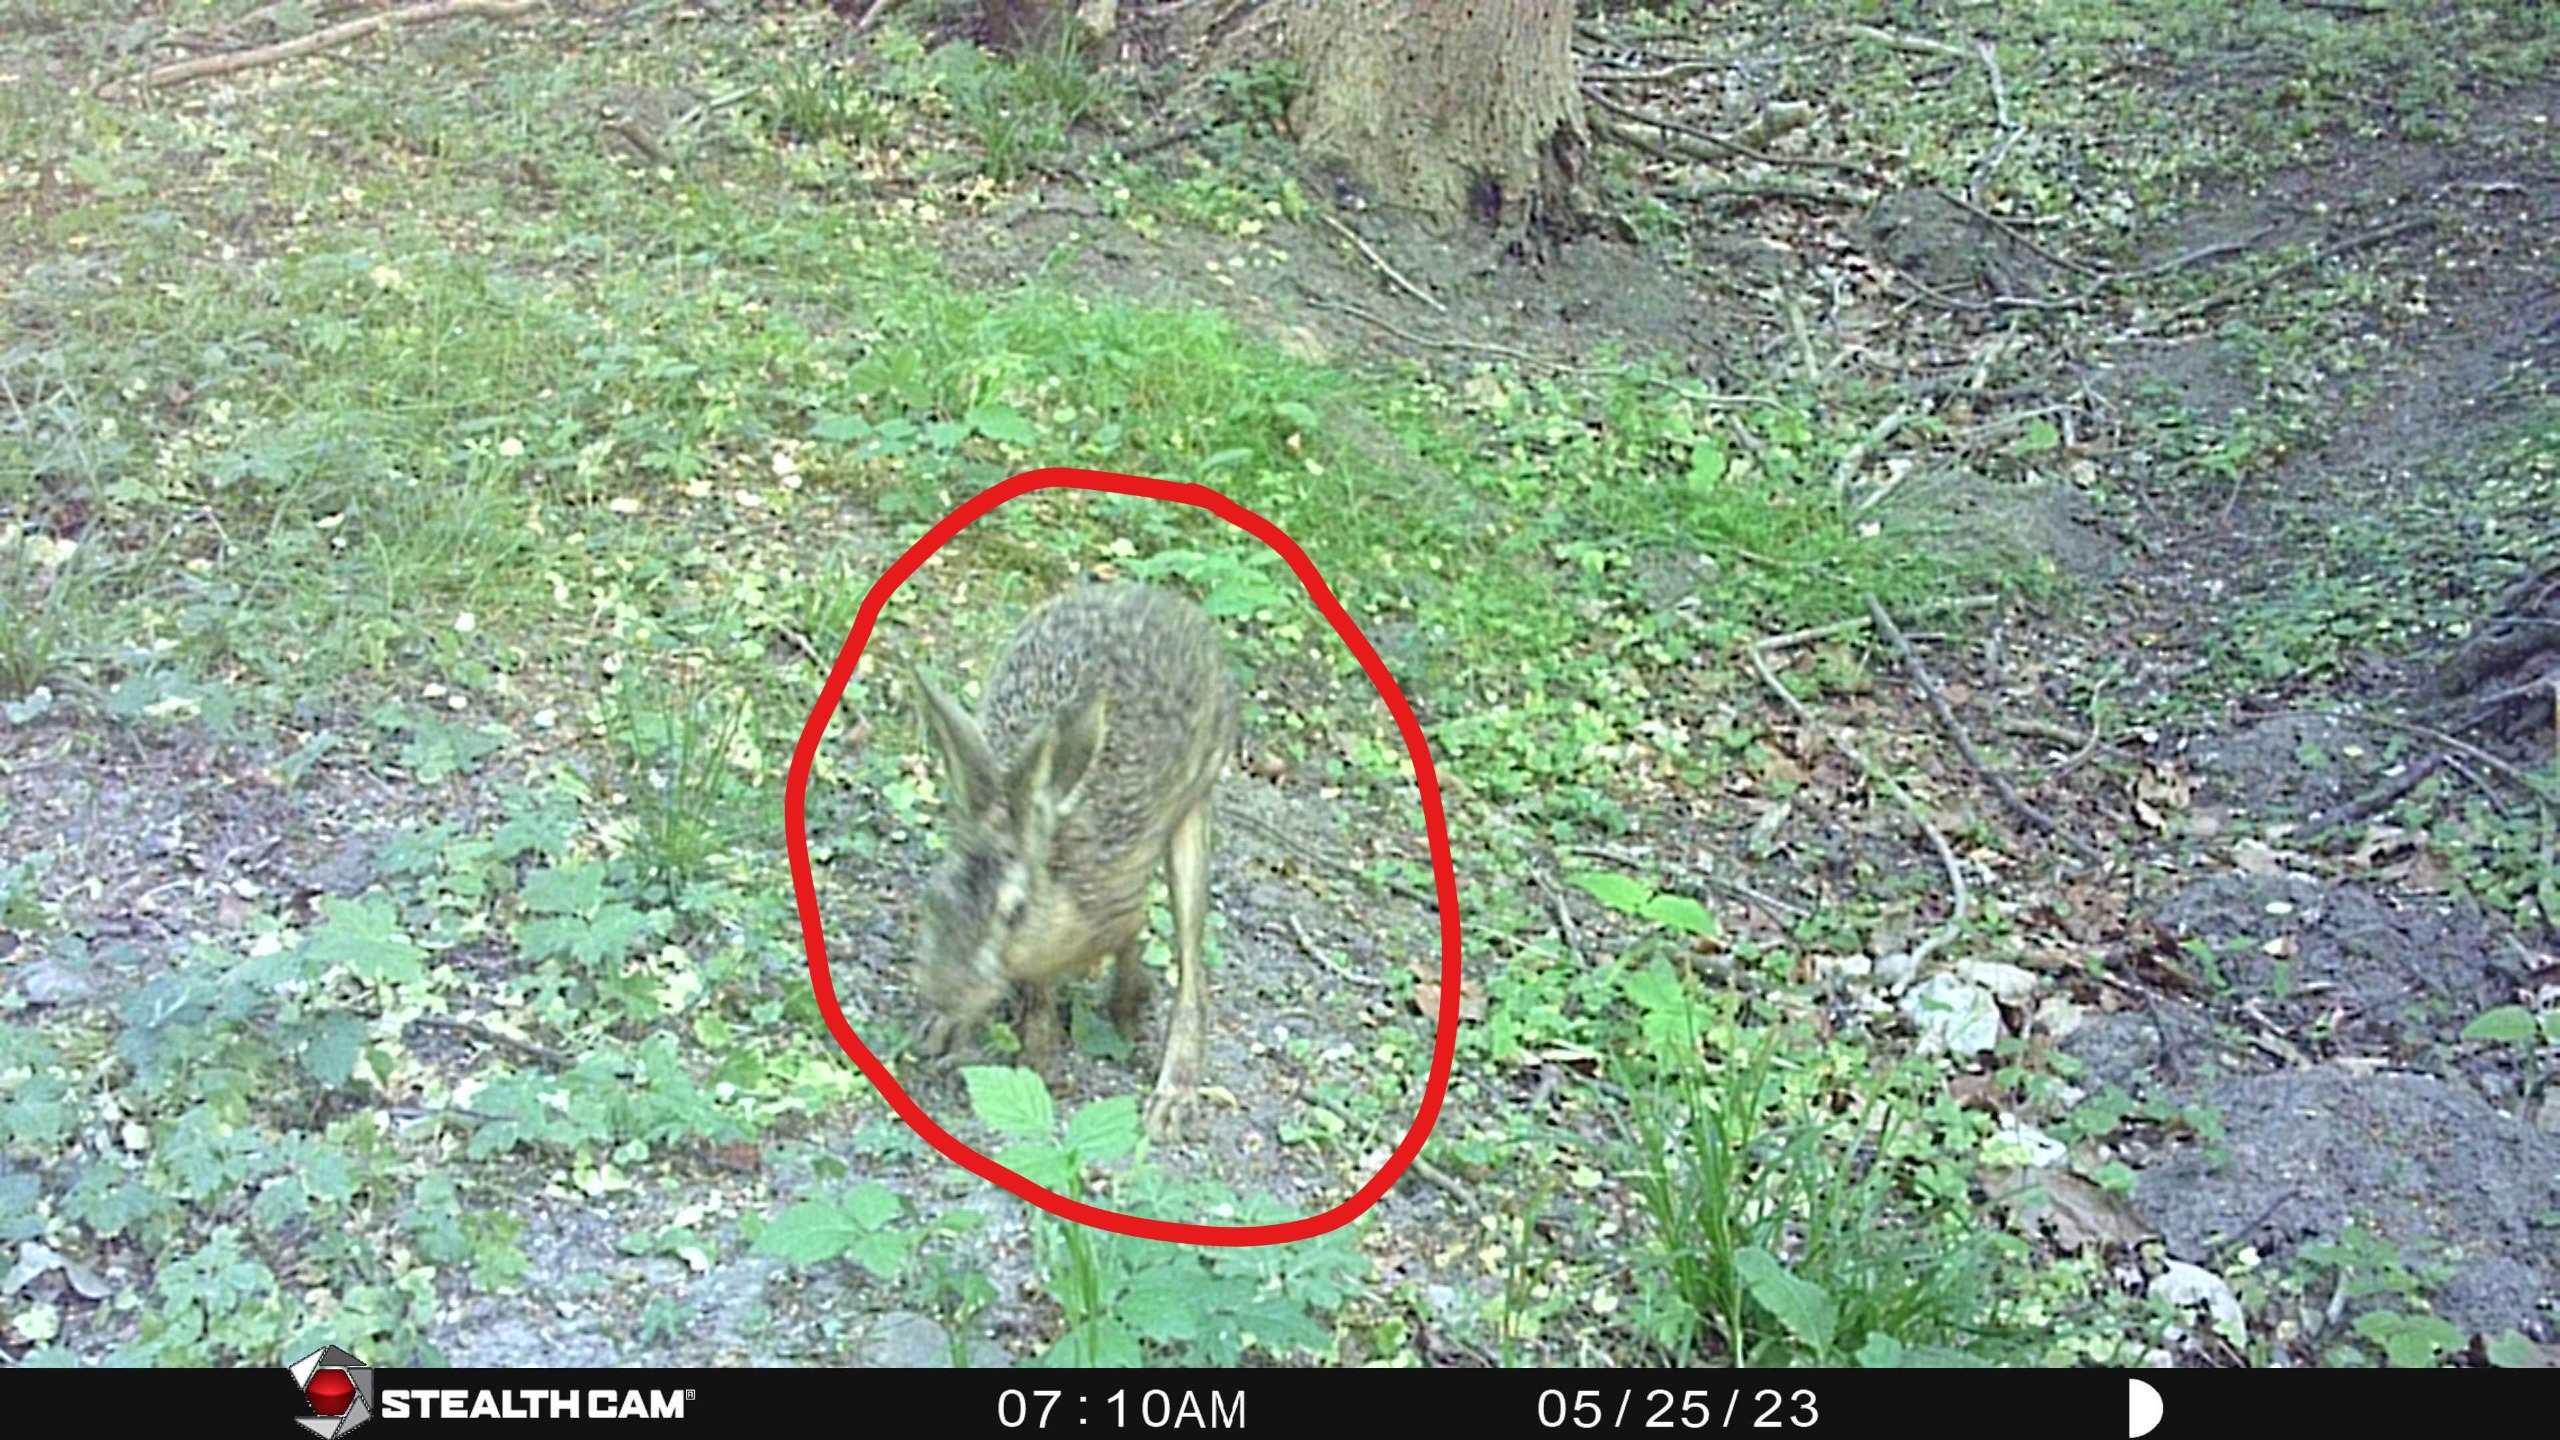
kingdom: Animalia
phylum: Chordata
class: Mammalia
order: Lagomorpha
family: Leporidae
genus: Lepus
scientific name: Lepus europaeus
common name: Hare
